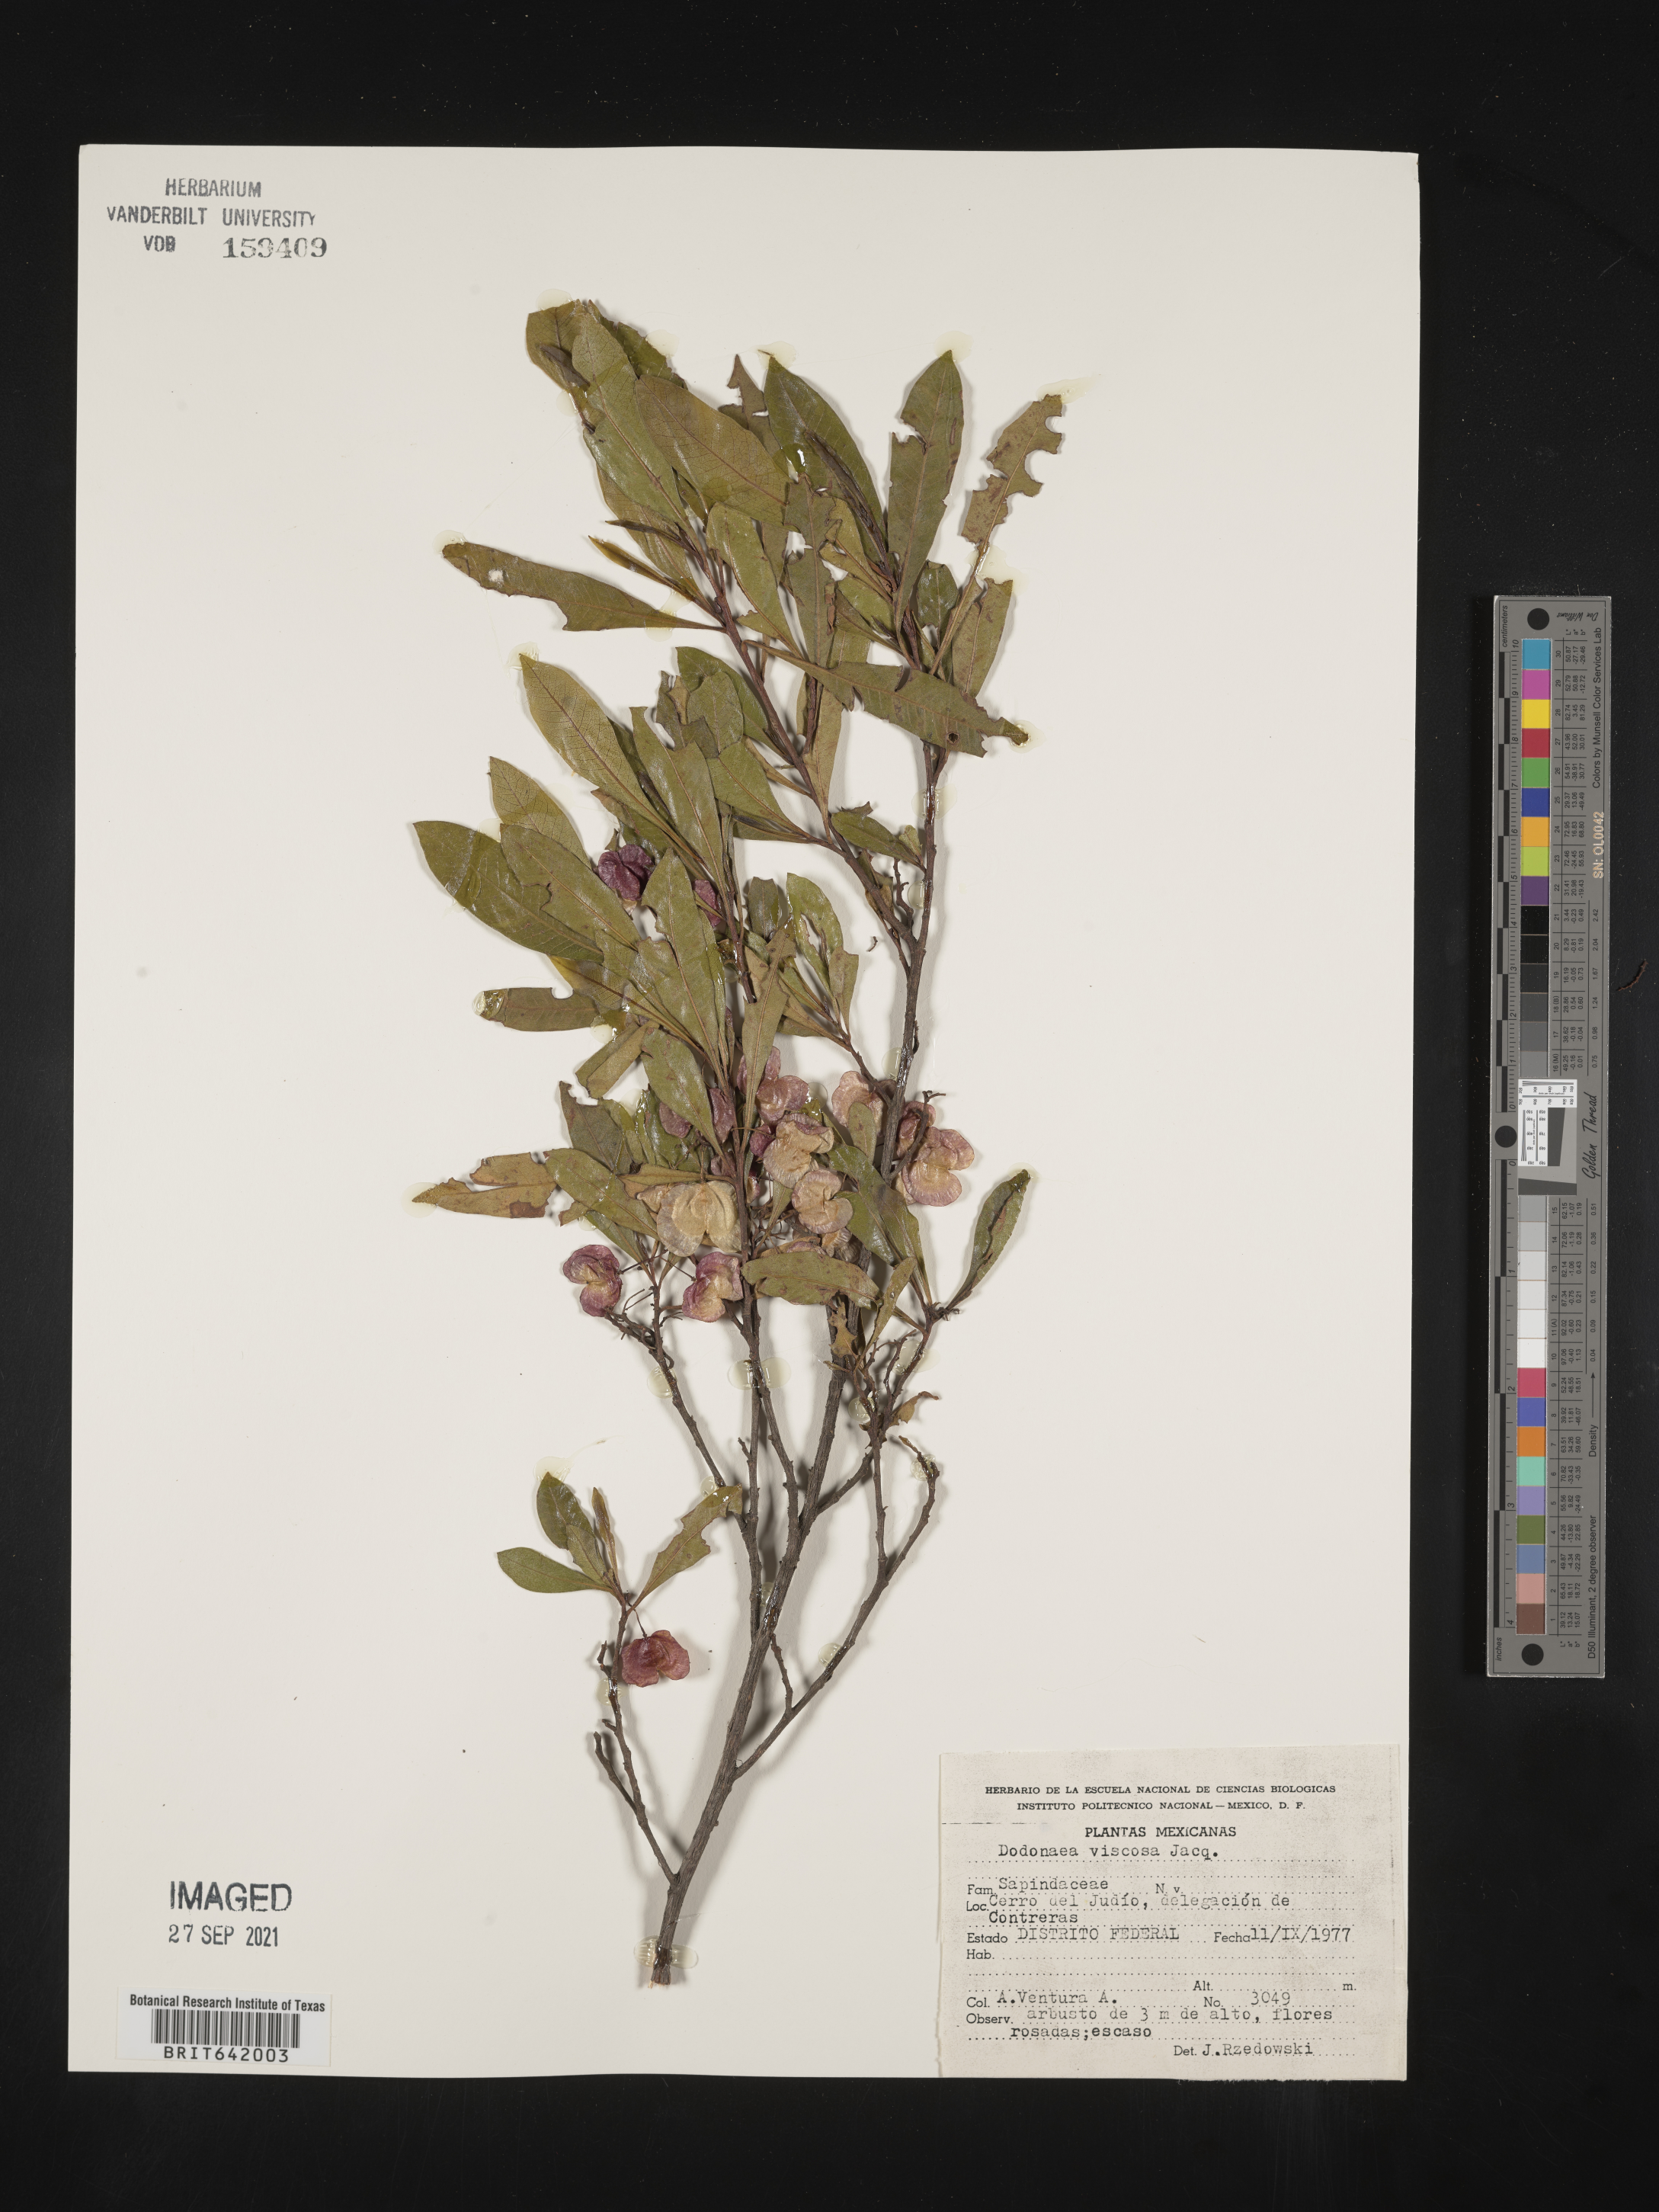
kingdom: Plantae
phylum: Tracheophyta
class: Magnoliopsida
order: Sapindales
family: Sapindaceae
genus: Dodonaea
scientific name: Dodonaea
